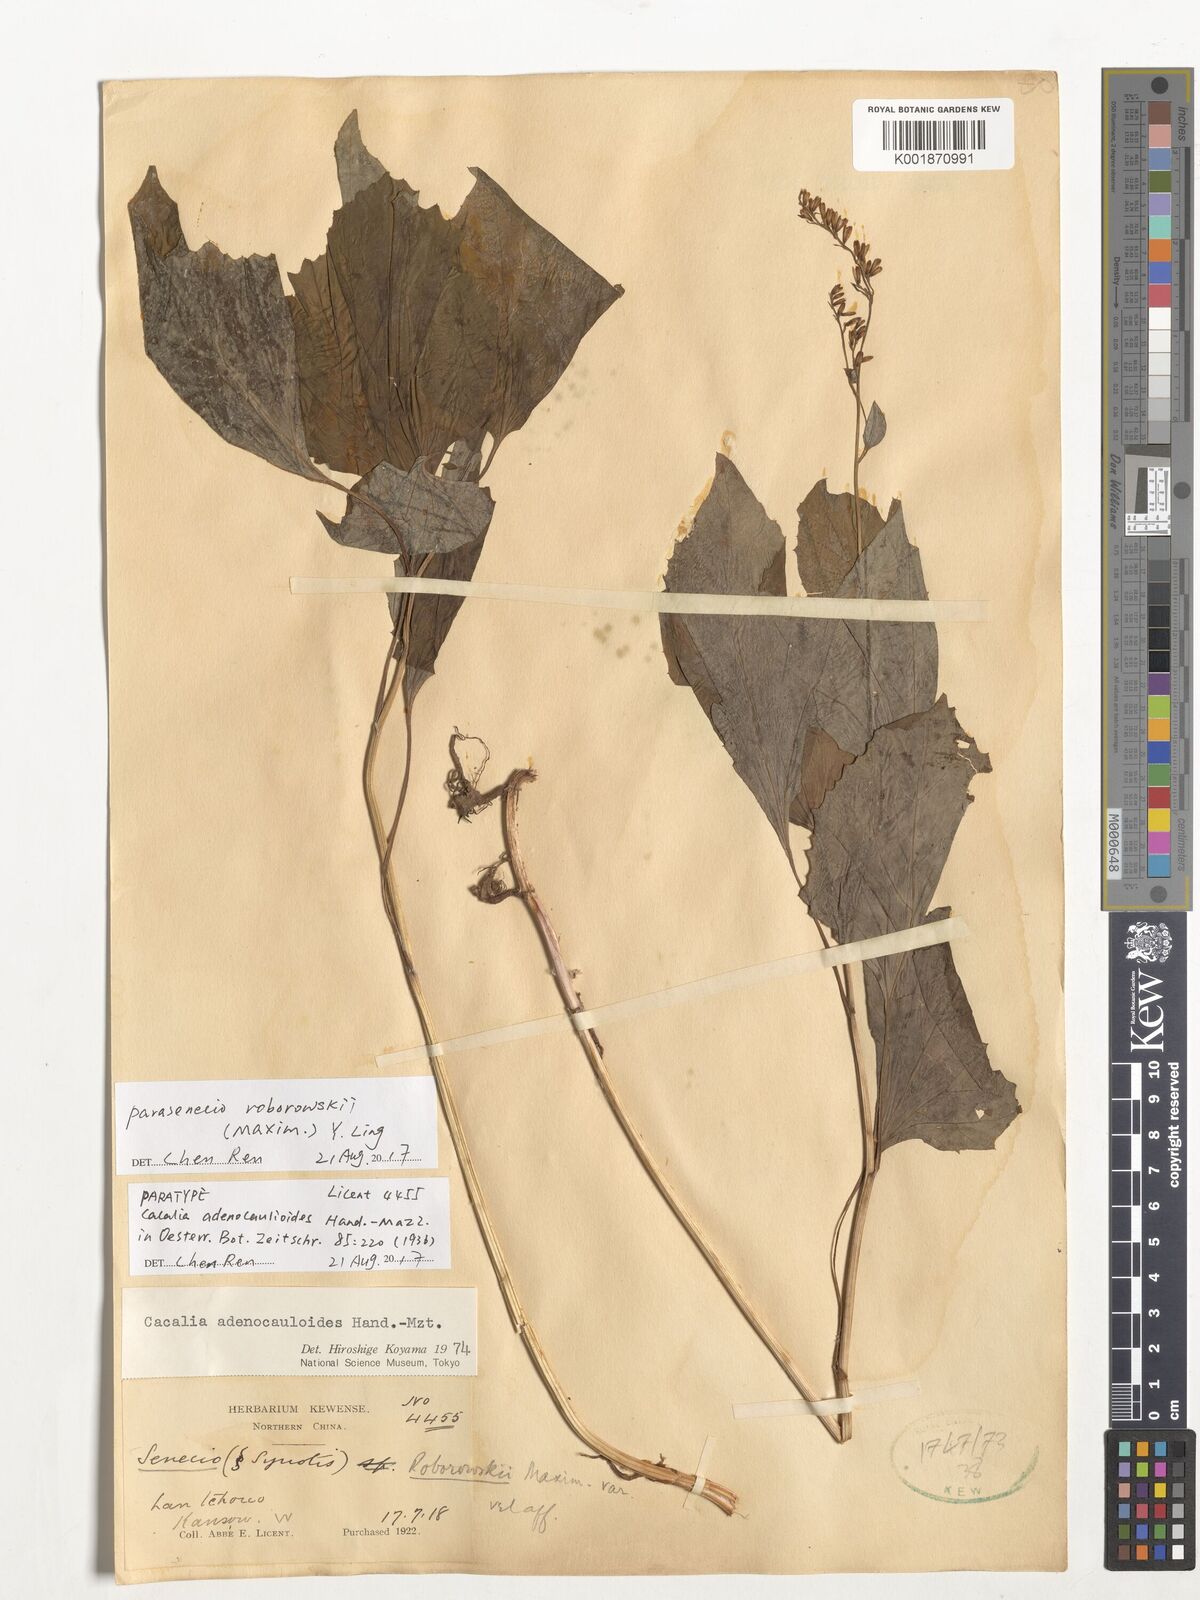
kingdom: Plantae
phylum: Tracheophyta
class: Magnoliopsida
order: Asterales
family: Asteraceae
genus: Parasenecio
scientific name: Parasenecio roborowskii
